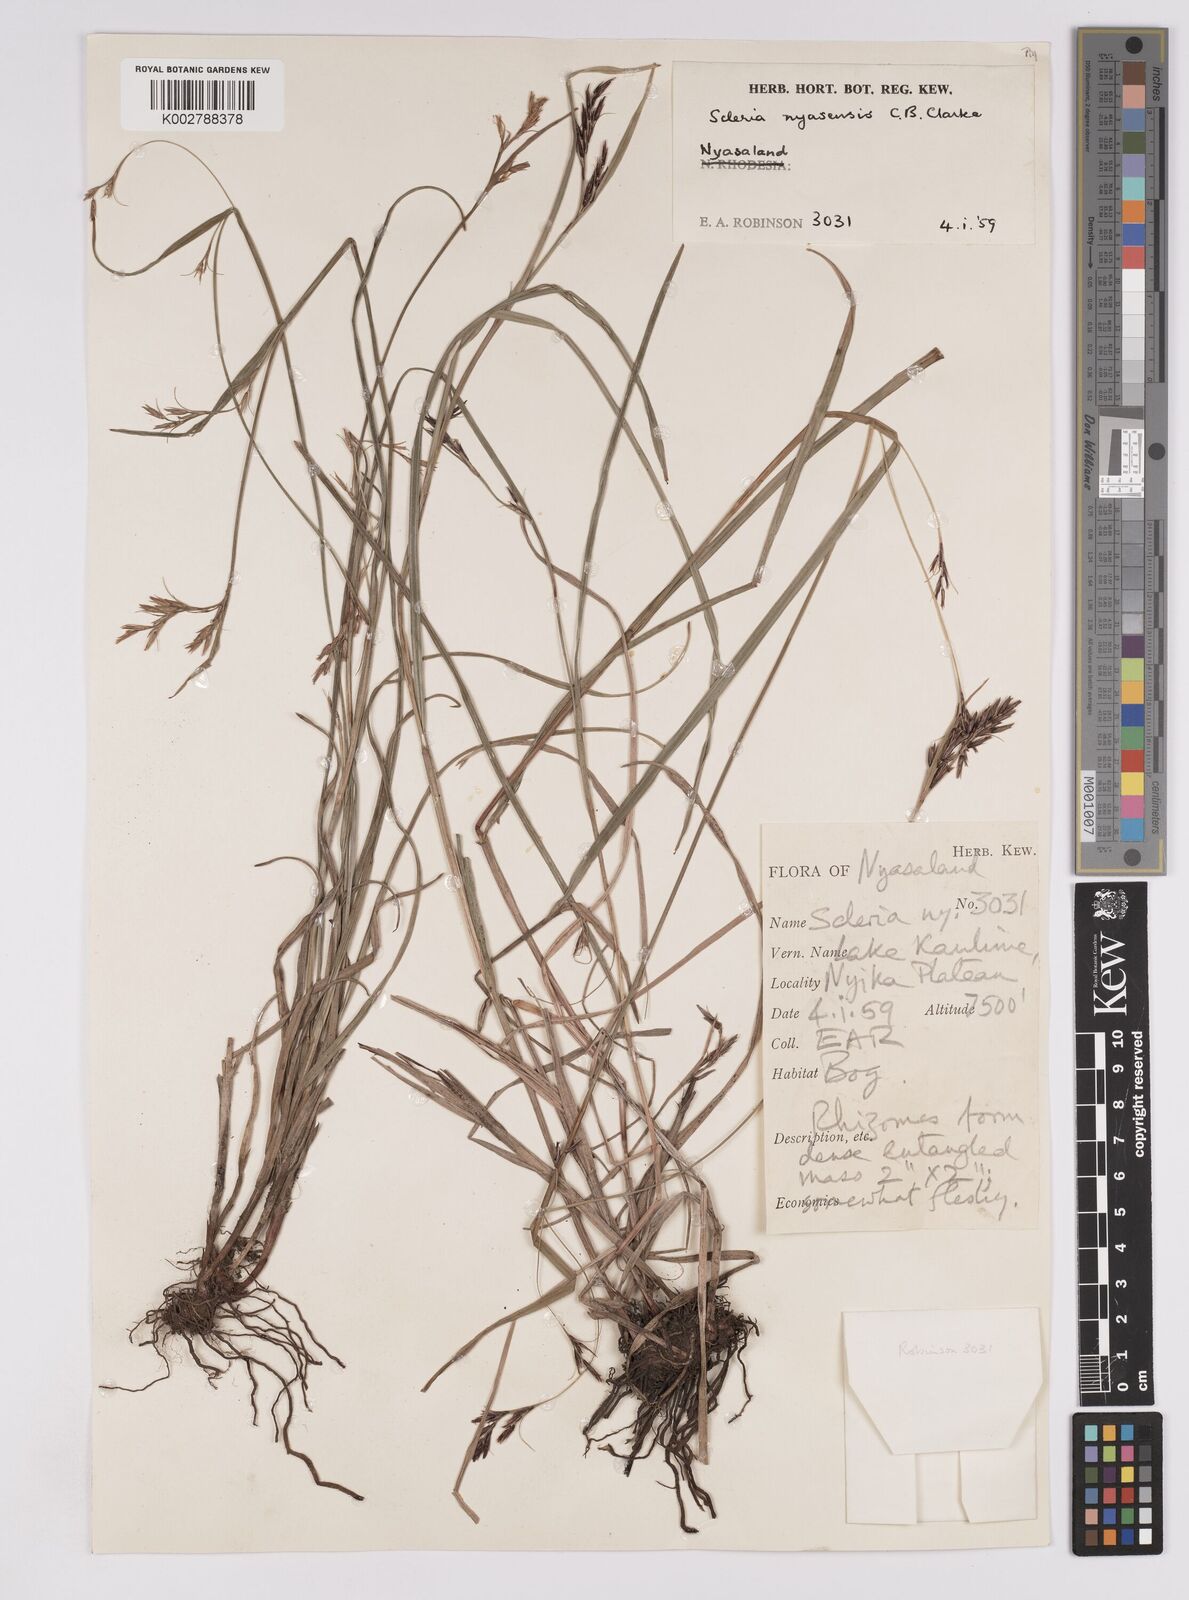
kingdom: Plantae
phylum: Tracheophyta
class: Liliopsida
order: Poales
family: Cyperaceae
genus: Scleria
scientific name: Scleria nyasensis
